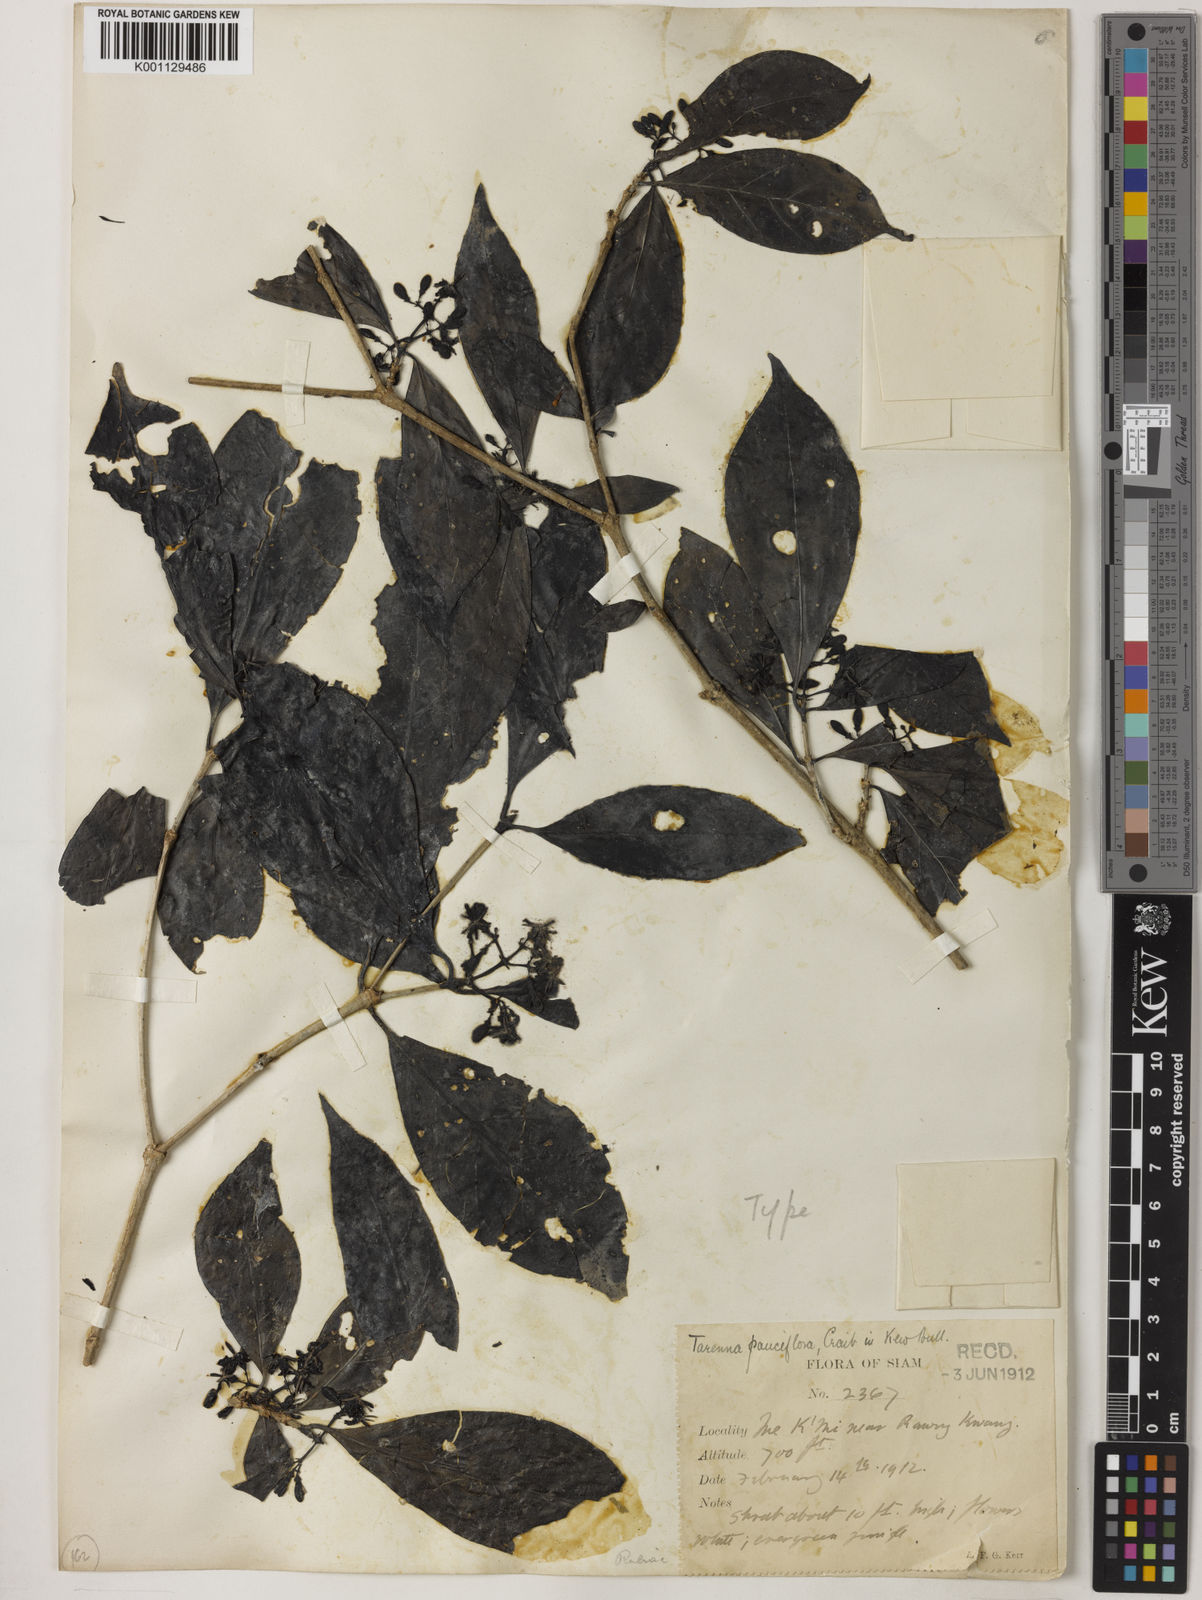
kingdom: Plantae
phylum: Tracheophyta
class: Magnoliopsida
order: Gentianales
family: Rubiaceae
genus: Tarenna
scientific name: Tarenna pauciflora
